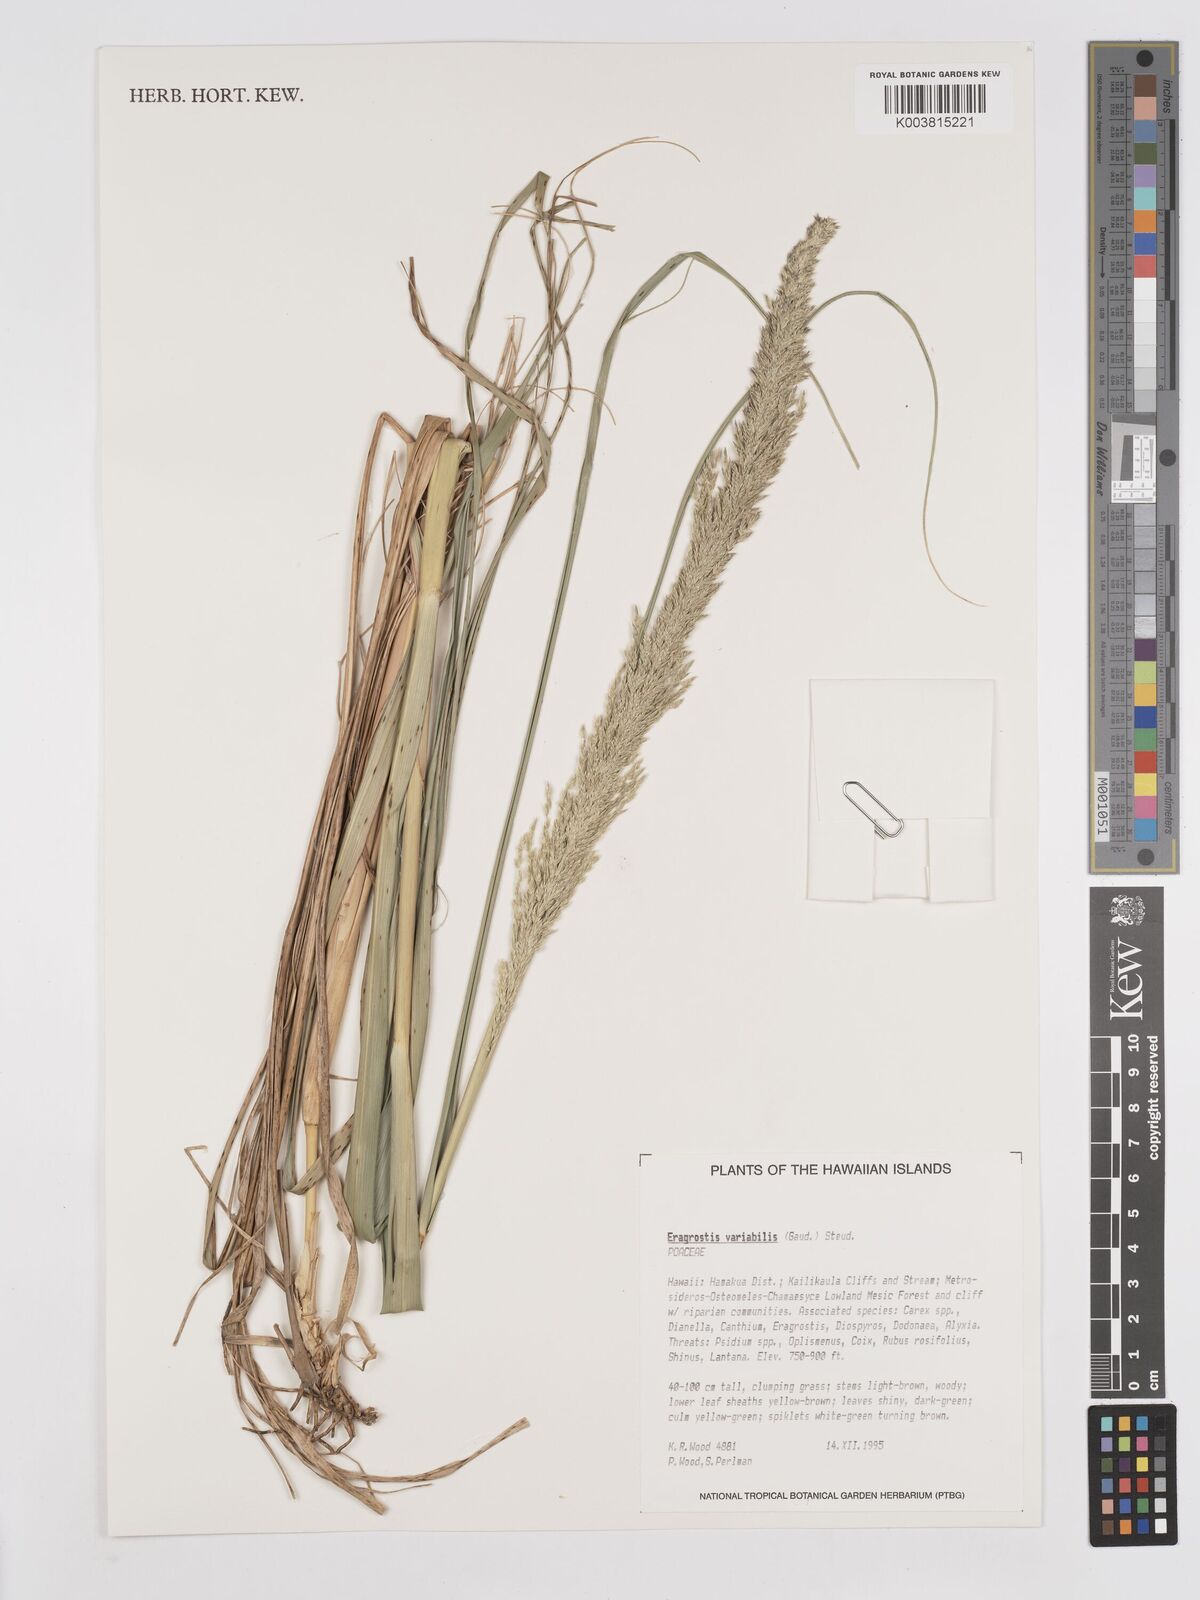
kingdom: Plantae
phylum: Tracheophyta
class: Liliopsida
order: Poales
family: Poaceae
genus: Eragrostis
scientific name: Eragrostis variabilis
